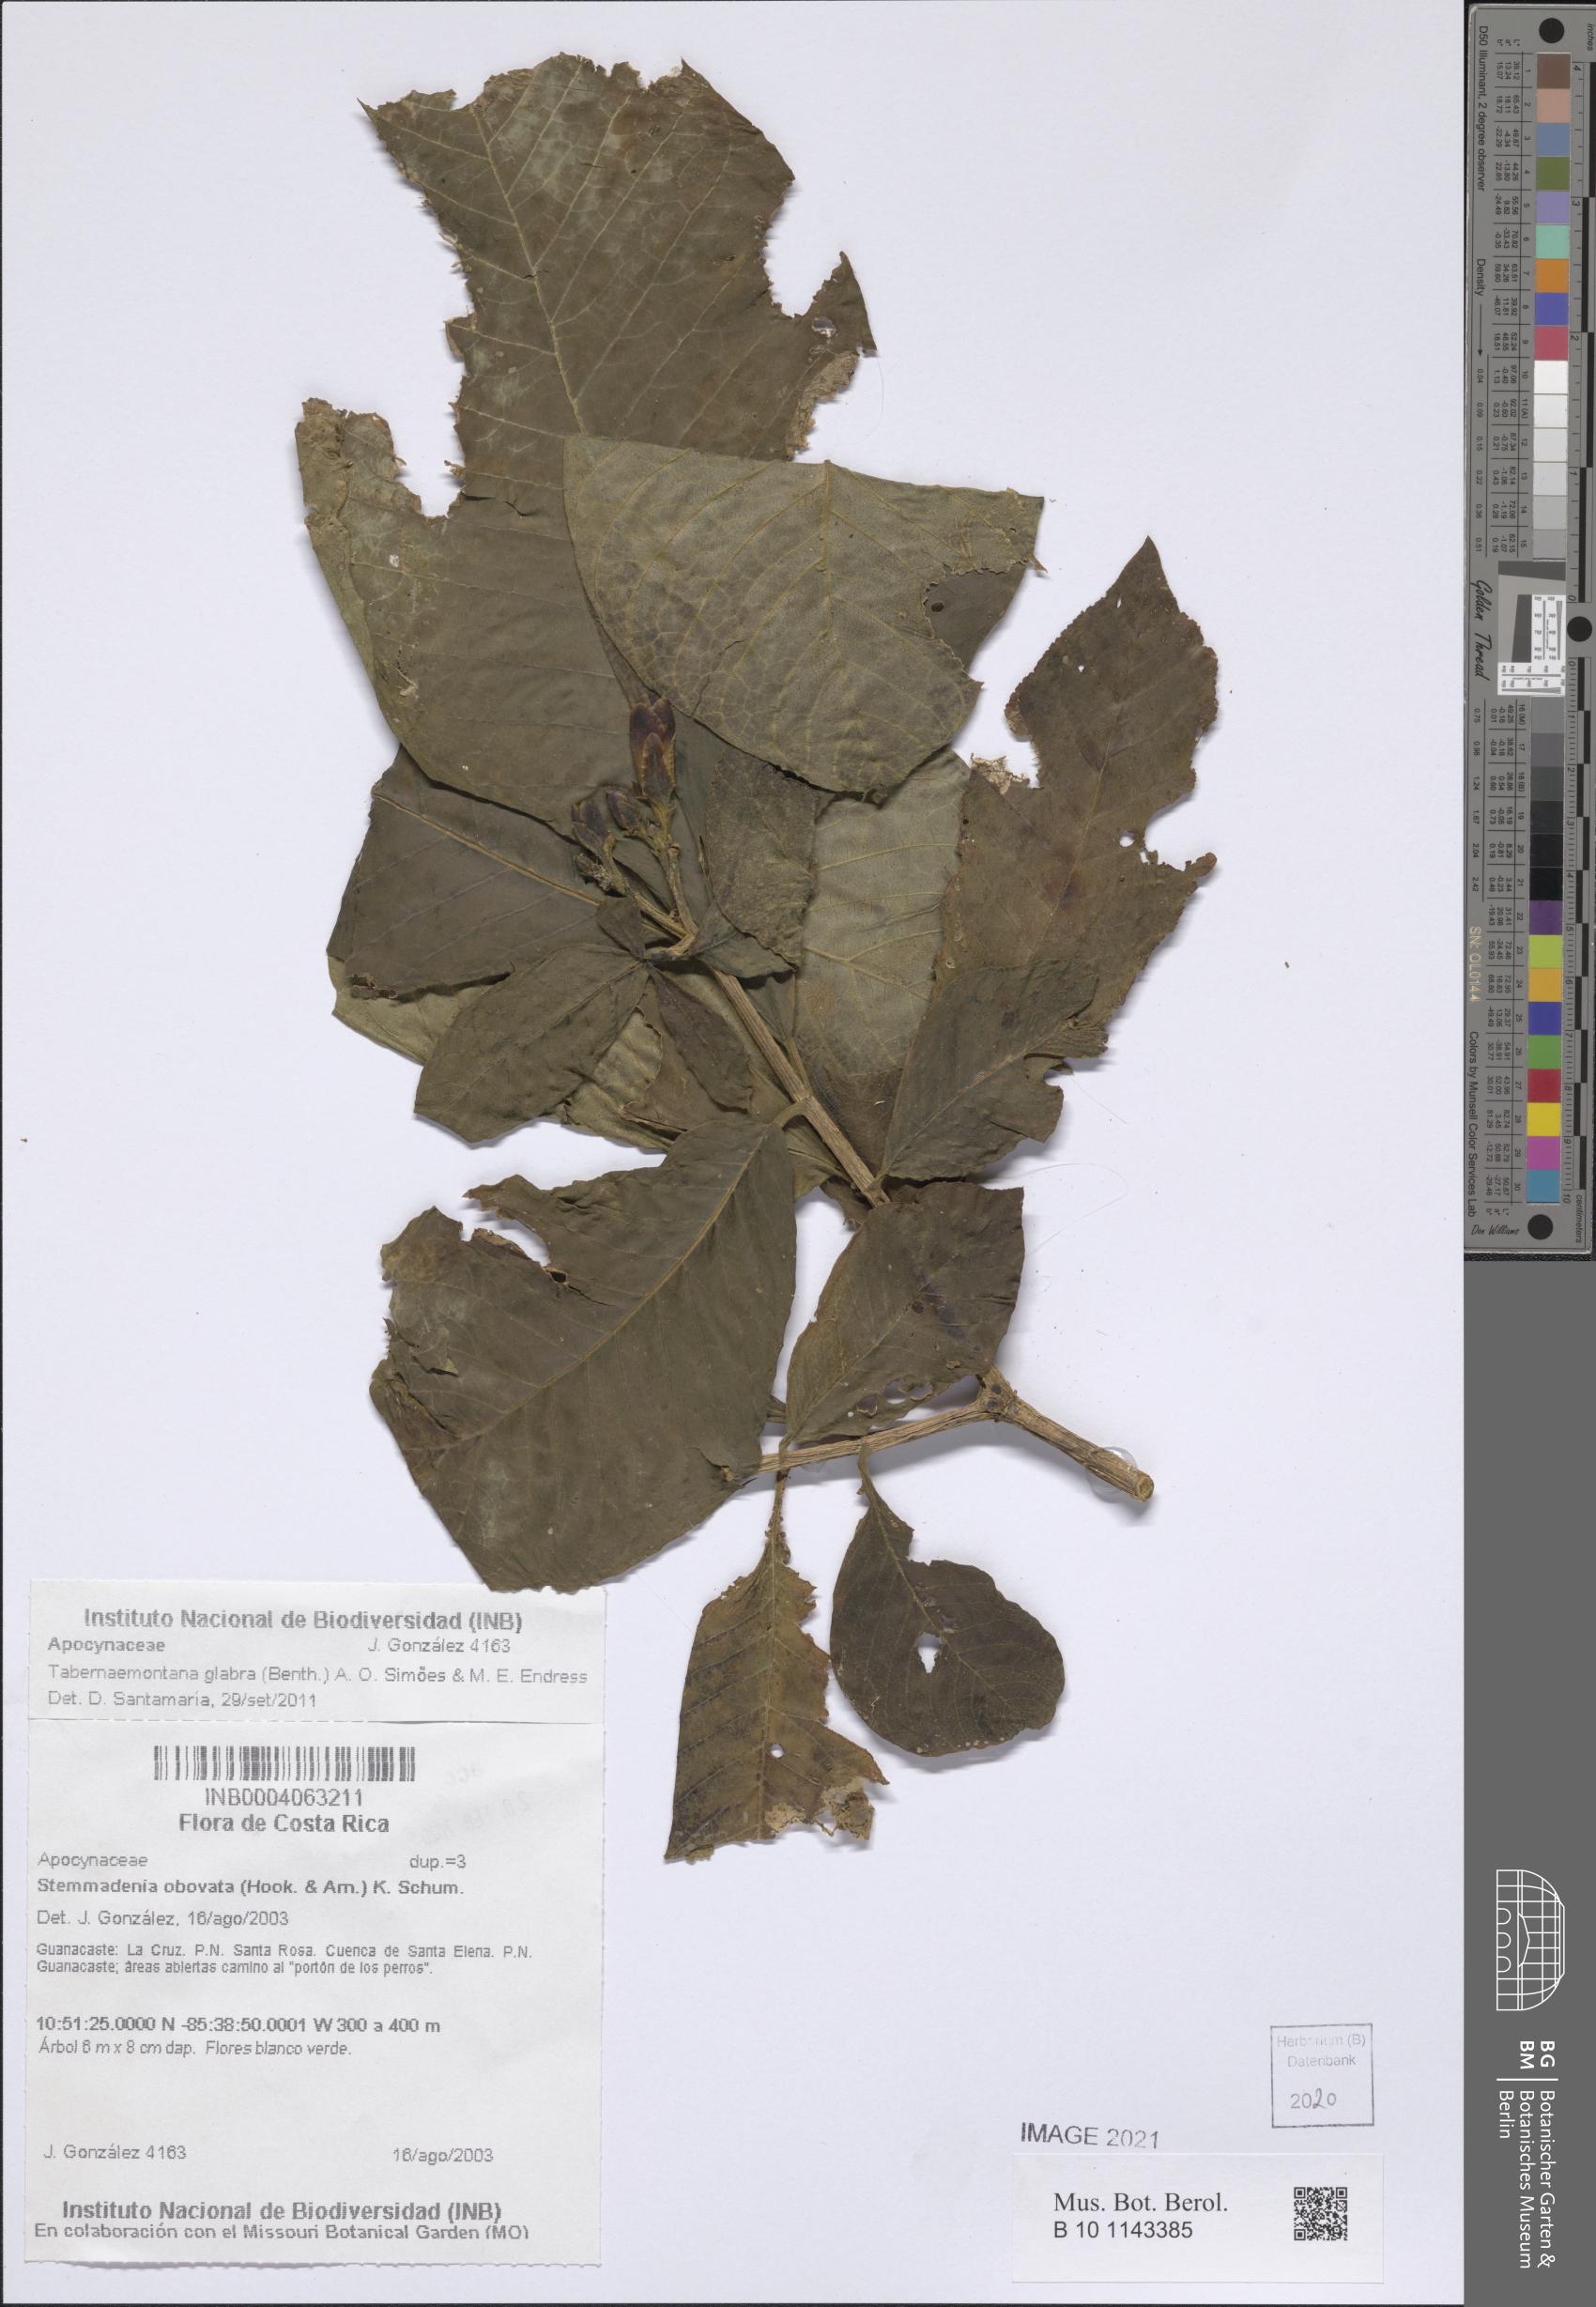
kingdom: Plantae
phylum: Tracheophyta
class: Magnoliopsida
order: Gentianales
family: Apocynaceae
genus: Tabernaemontana
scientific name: Tabernaemontana glabra
